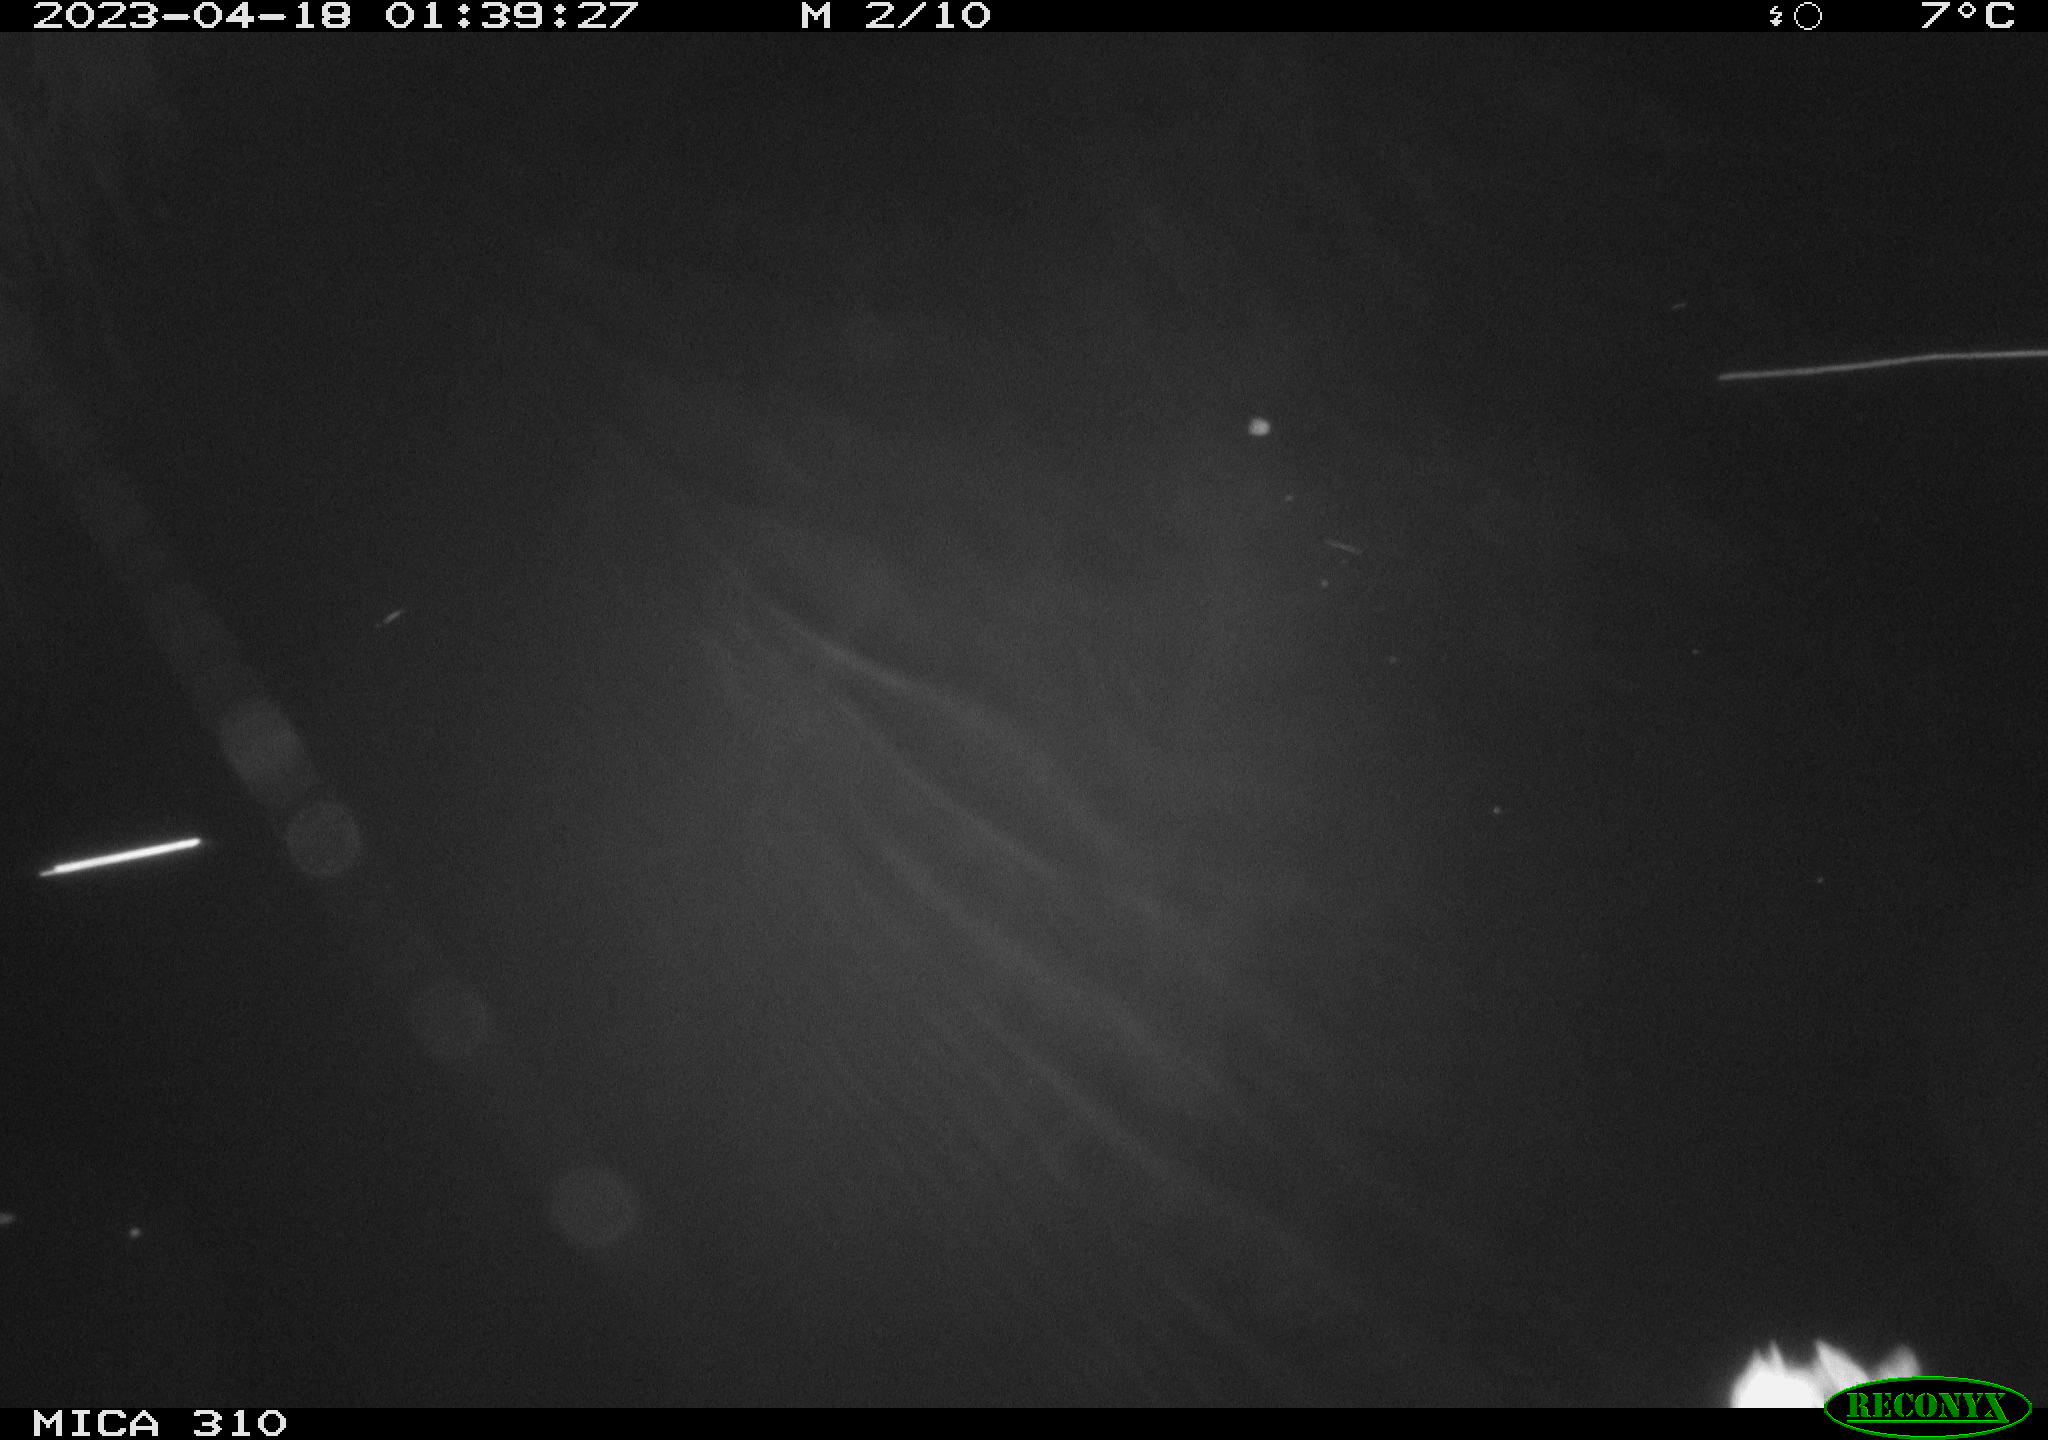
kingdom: Animalia
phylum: Chordata
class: Aves
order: Anseriformes
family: Anatidae
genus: Anas
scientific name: Anas
